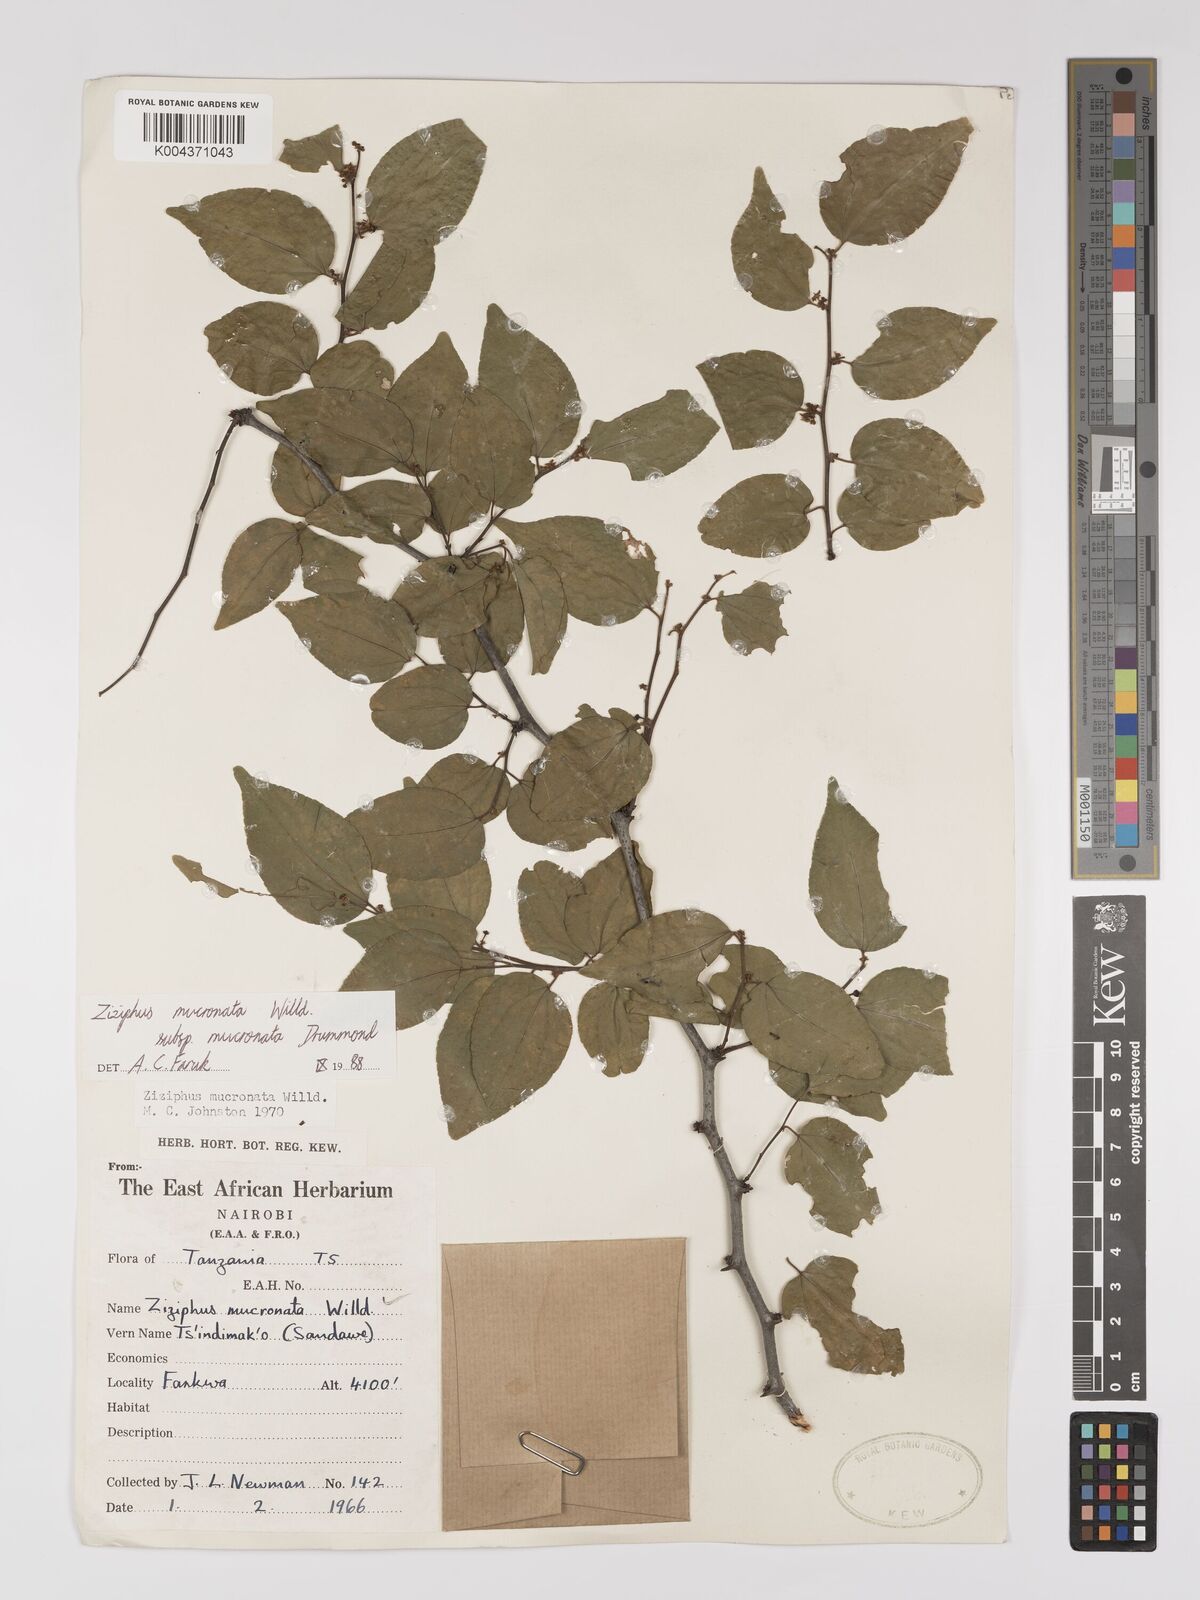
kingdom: Plantae
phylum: Tracheophyta
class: Magnoliopsida
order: Rosales
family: Rhamnaceae
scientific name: Rhamnaceae
